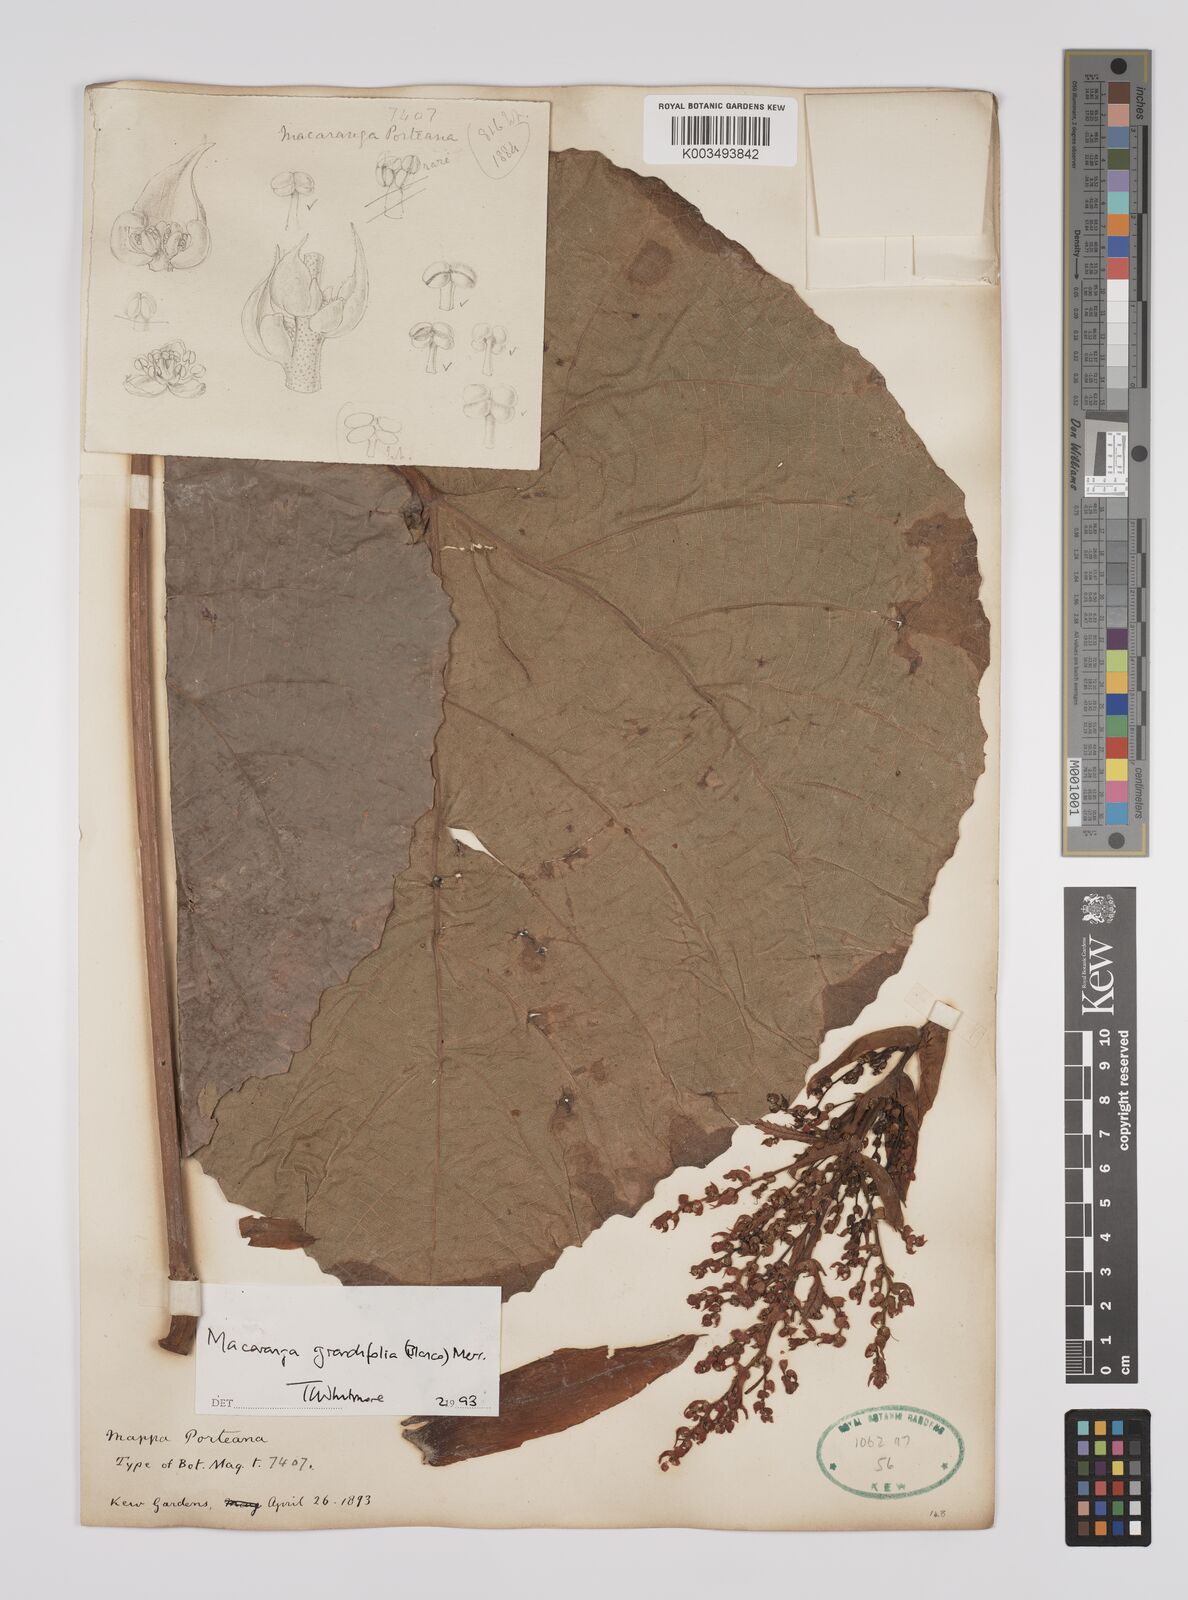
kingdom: Plantae
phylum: Tracheophyta
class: Magnoliopsida
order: Malpighiales
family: Euphorbiaceae
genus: Macaranga
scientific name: Macaranga grandifolia
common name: Coraltree
